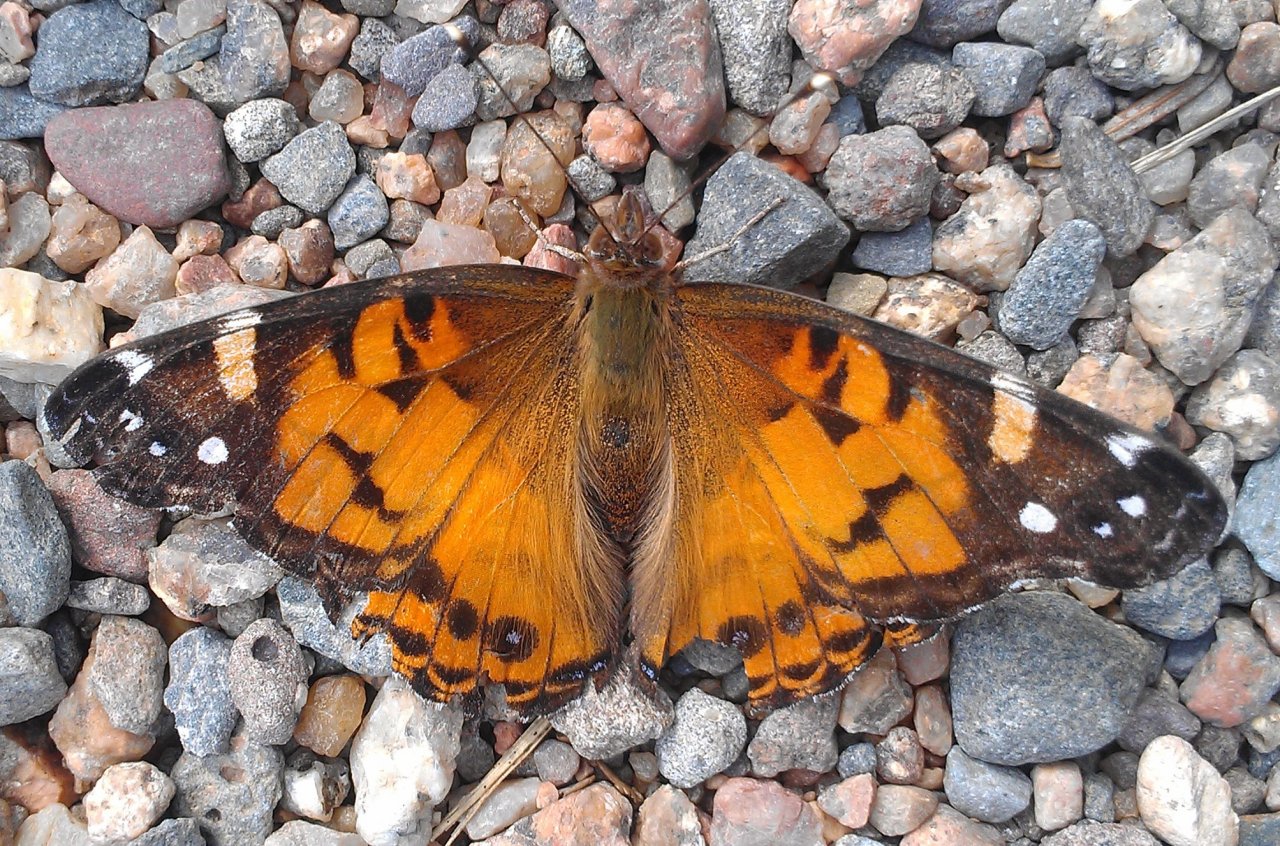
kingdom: Animalia
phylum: Arthropoda
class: Insecta
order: Lepidoptera
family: Nymphalidae
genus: Vanessa
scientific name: Vanessa virginiensis
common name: American Lady
